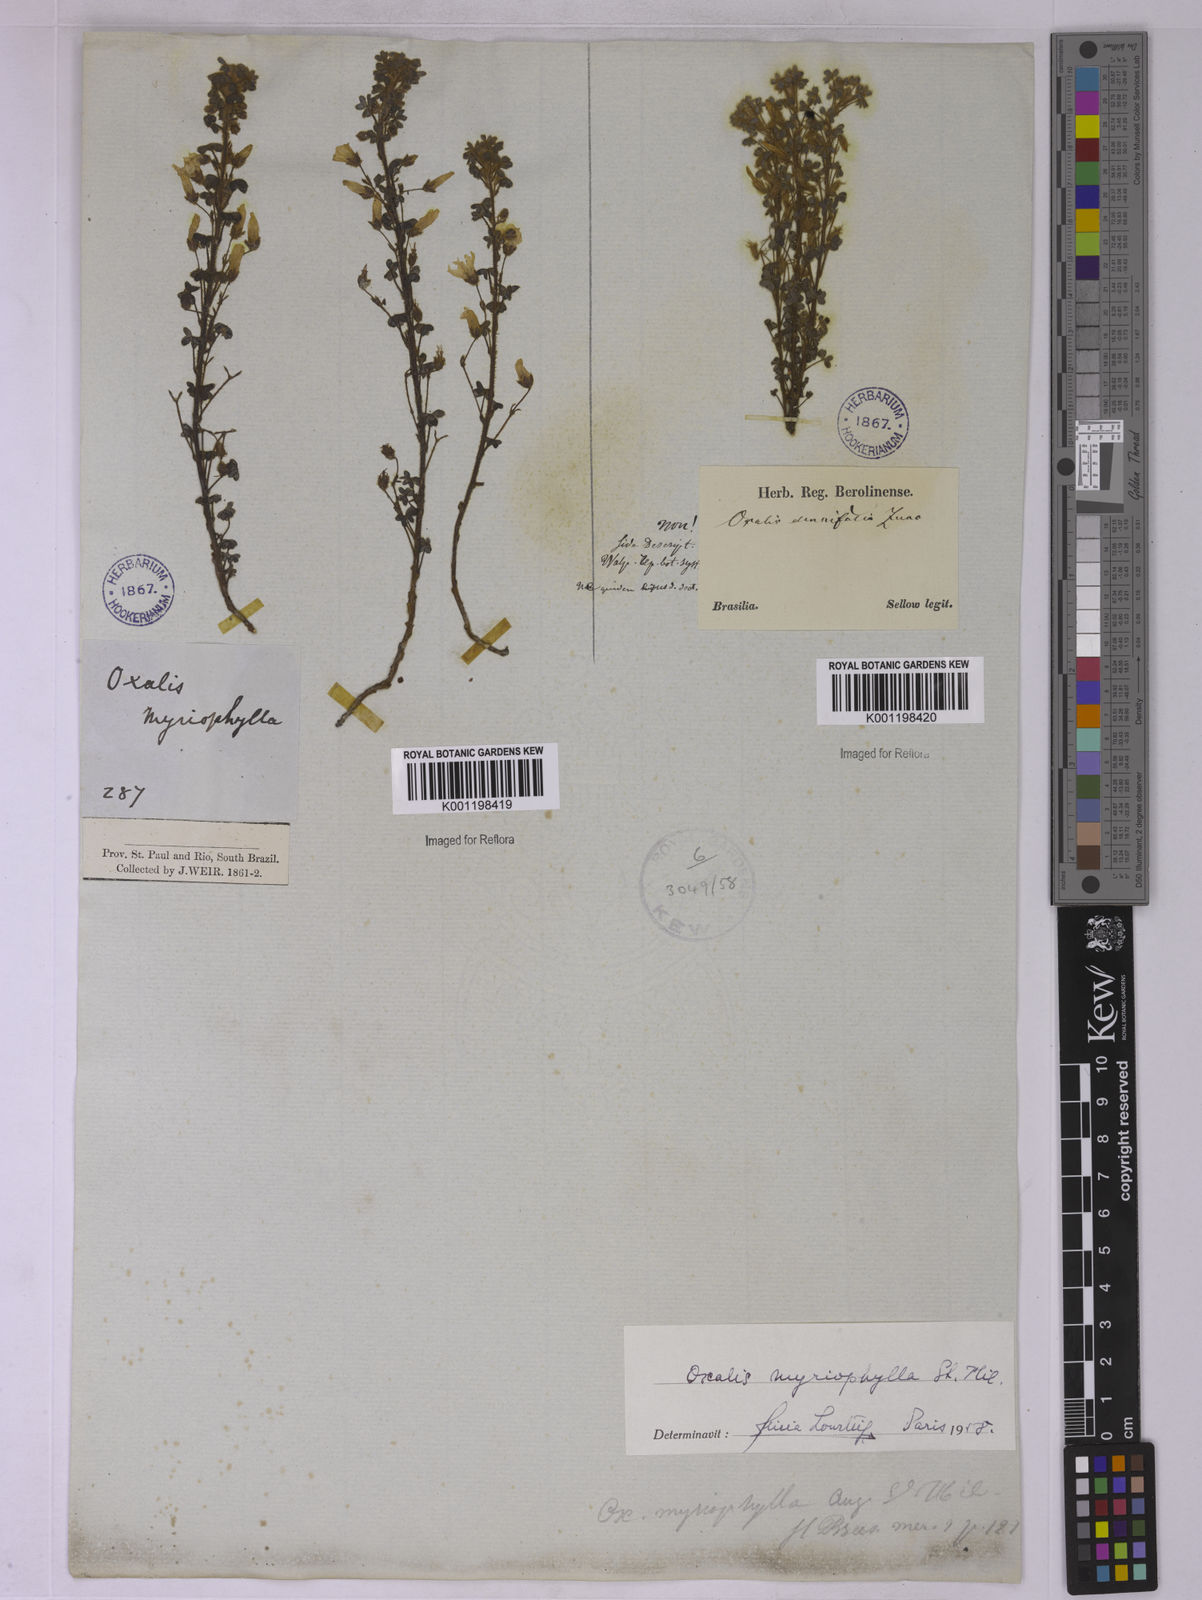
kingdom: Plantae
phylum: Tracheophyta
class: Magnoliopsida
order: Oxalidales
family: Oxalidaceae
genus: Oxalis
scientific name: Oxalis myriophylla
